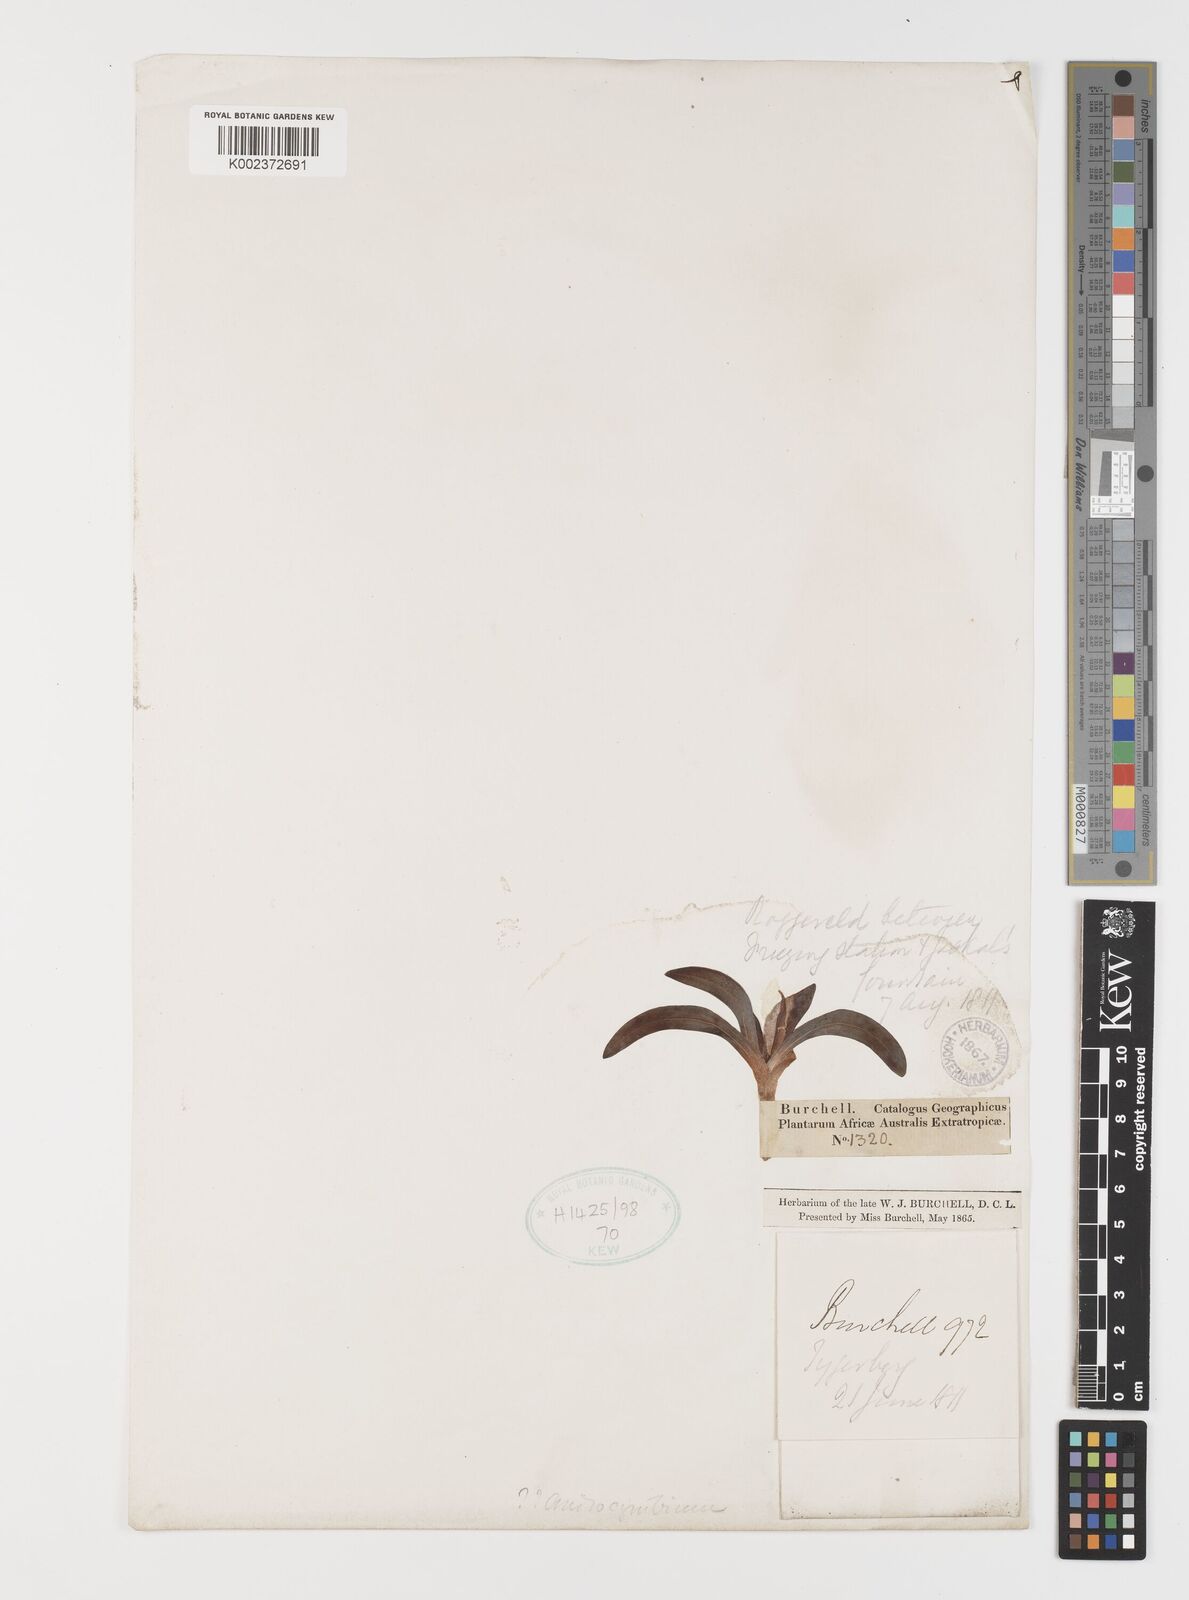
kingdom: Plantae
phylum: Tracheophyta
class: Liliopsida
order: Liliales
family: Colchicaceae
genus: Colchicum
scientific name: Colchicum
